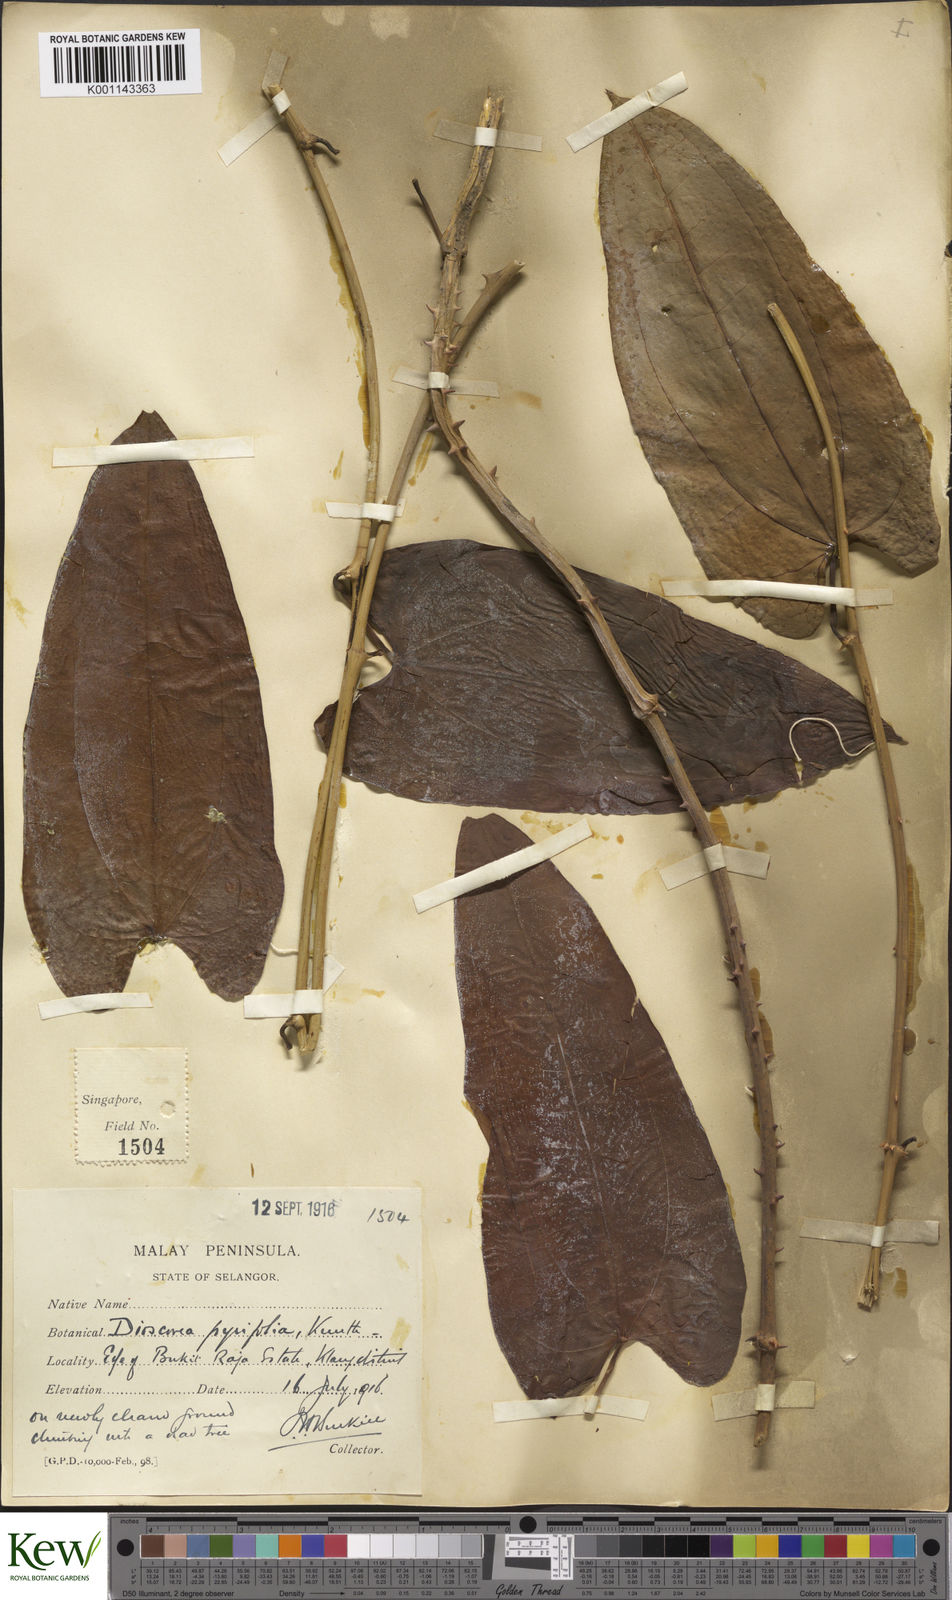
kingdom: Plantae
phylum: Tracheophyta
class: Liliopsida
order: Dioscoreales
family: Dioscoreaceae
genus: Dioscorea
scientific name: Dioscorea pyrifolia
